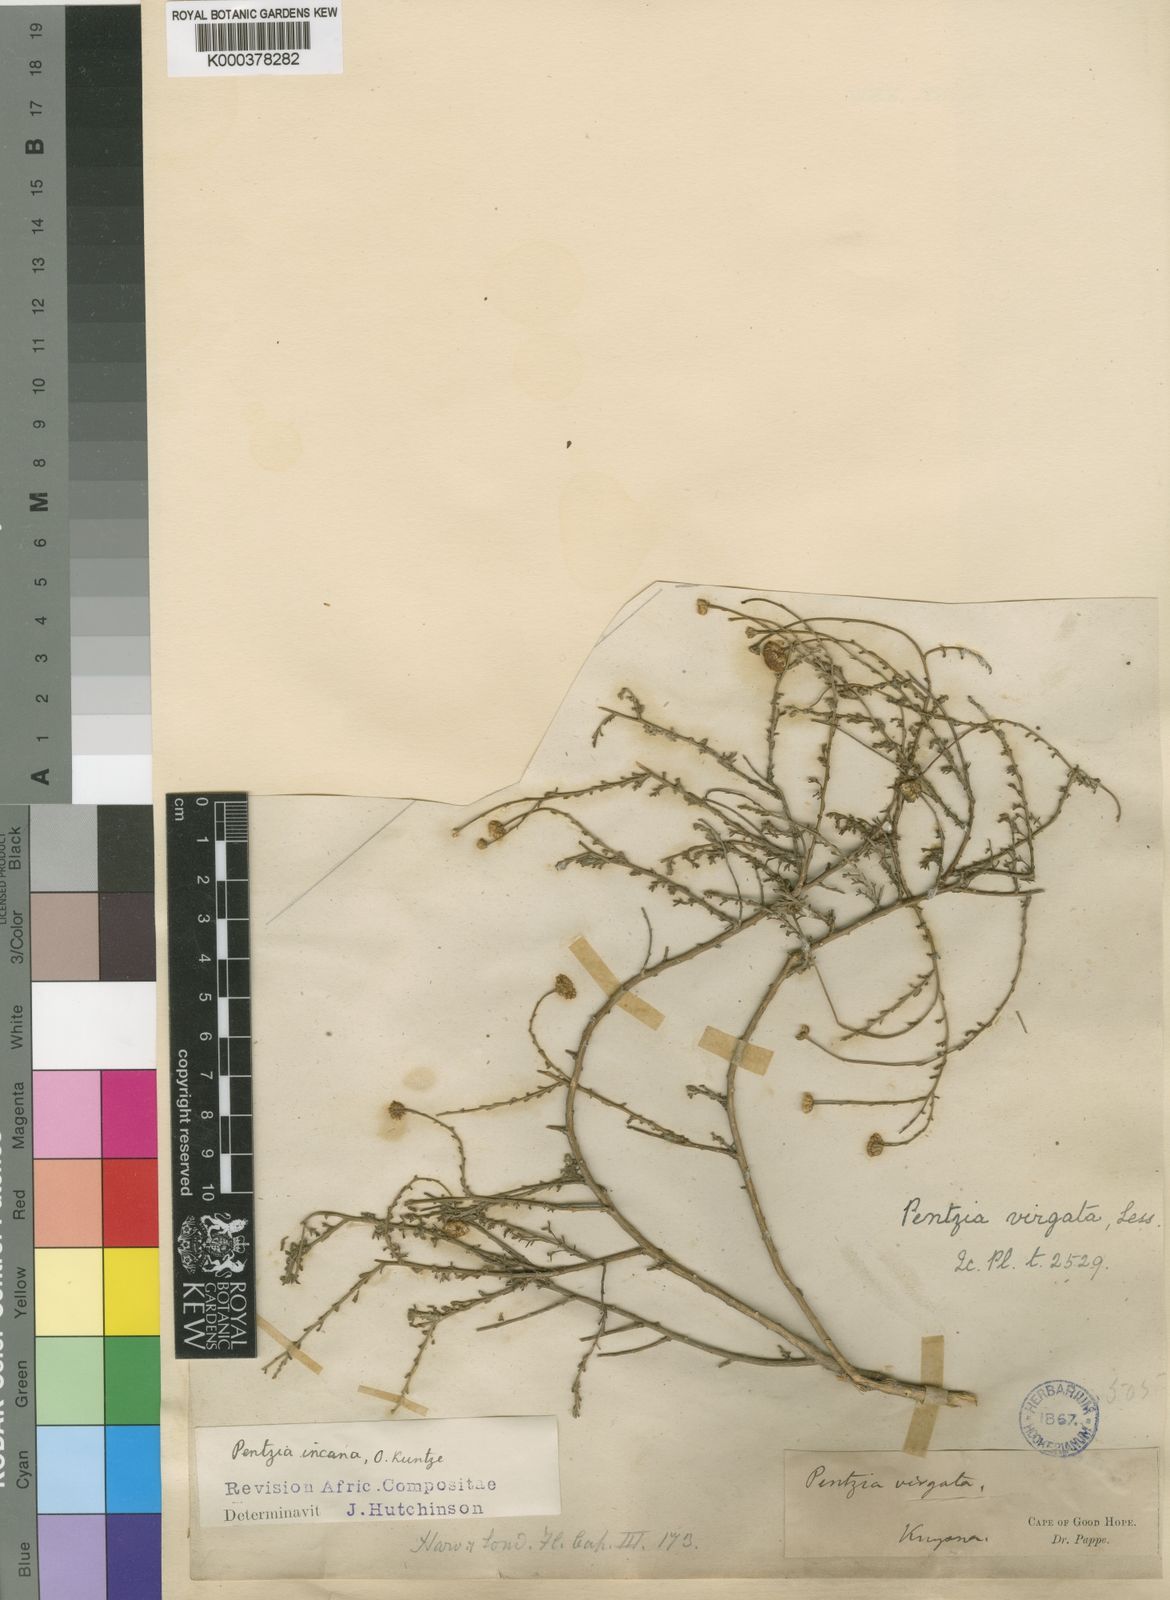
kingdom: Plantae
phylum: Tracheophyta
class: Magnoliopsida
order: Asterales
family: Asteraceae
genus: Pentzia
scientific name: Pentzia incana
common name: African sheepbush
